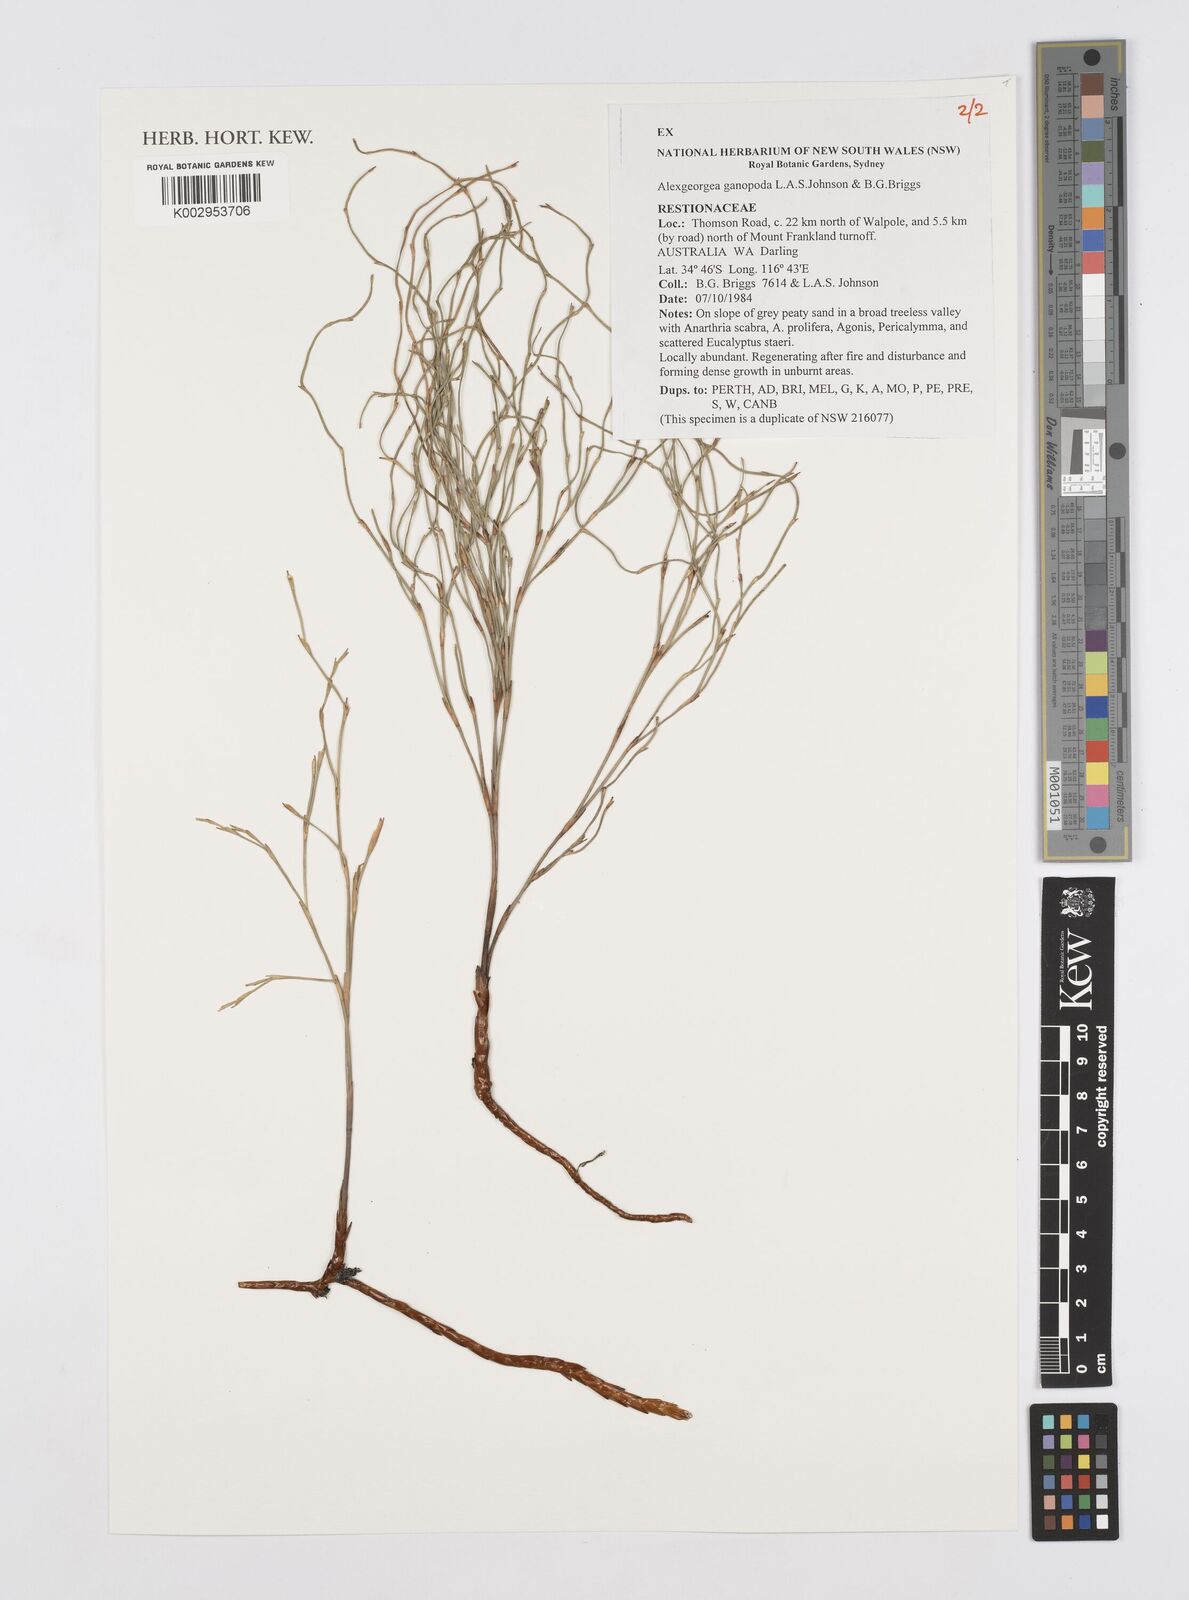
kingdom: Plantae
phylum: Tracheophyta
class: Liliopsida
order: Poales
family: Restionaceae
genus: Alexgeorgea
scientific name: Alexgeorgea ganopoda
